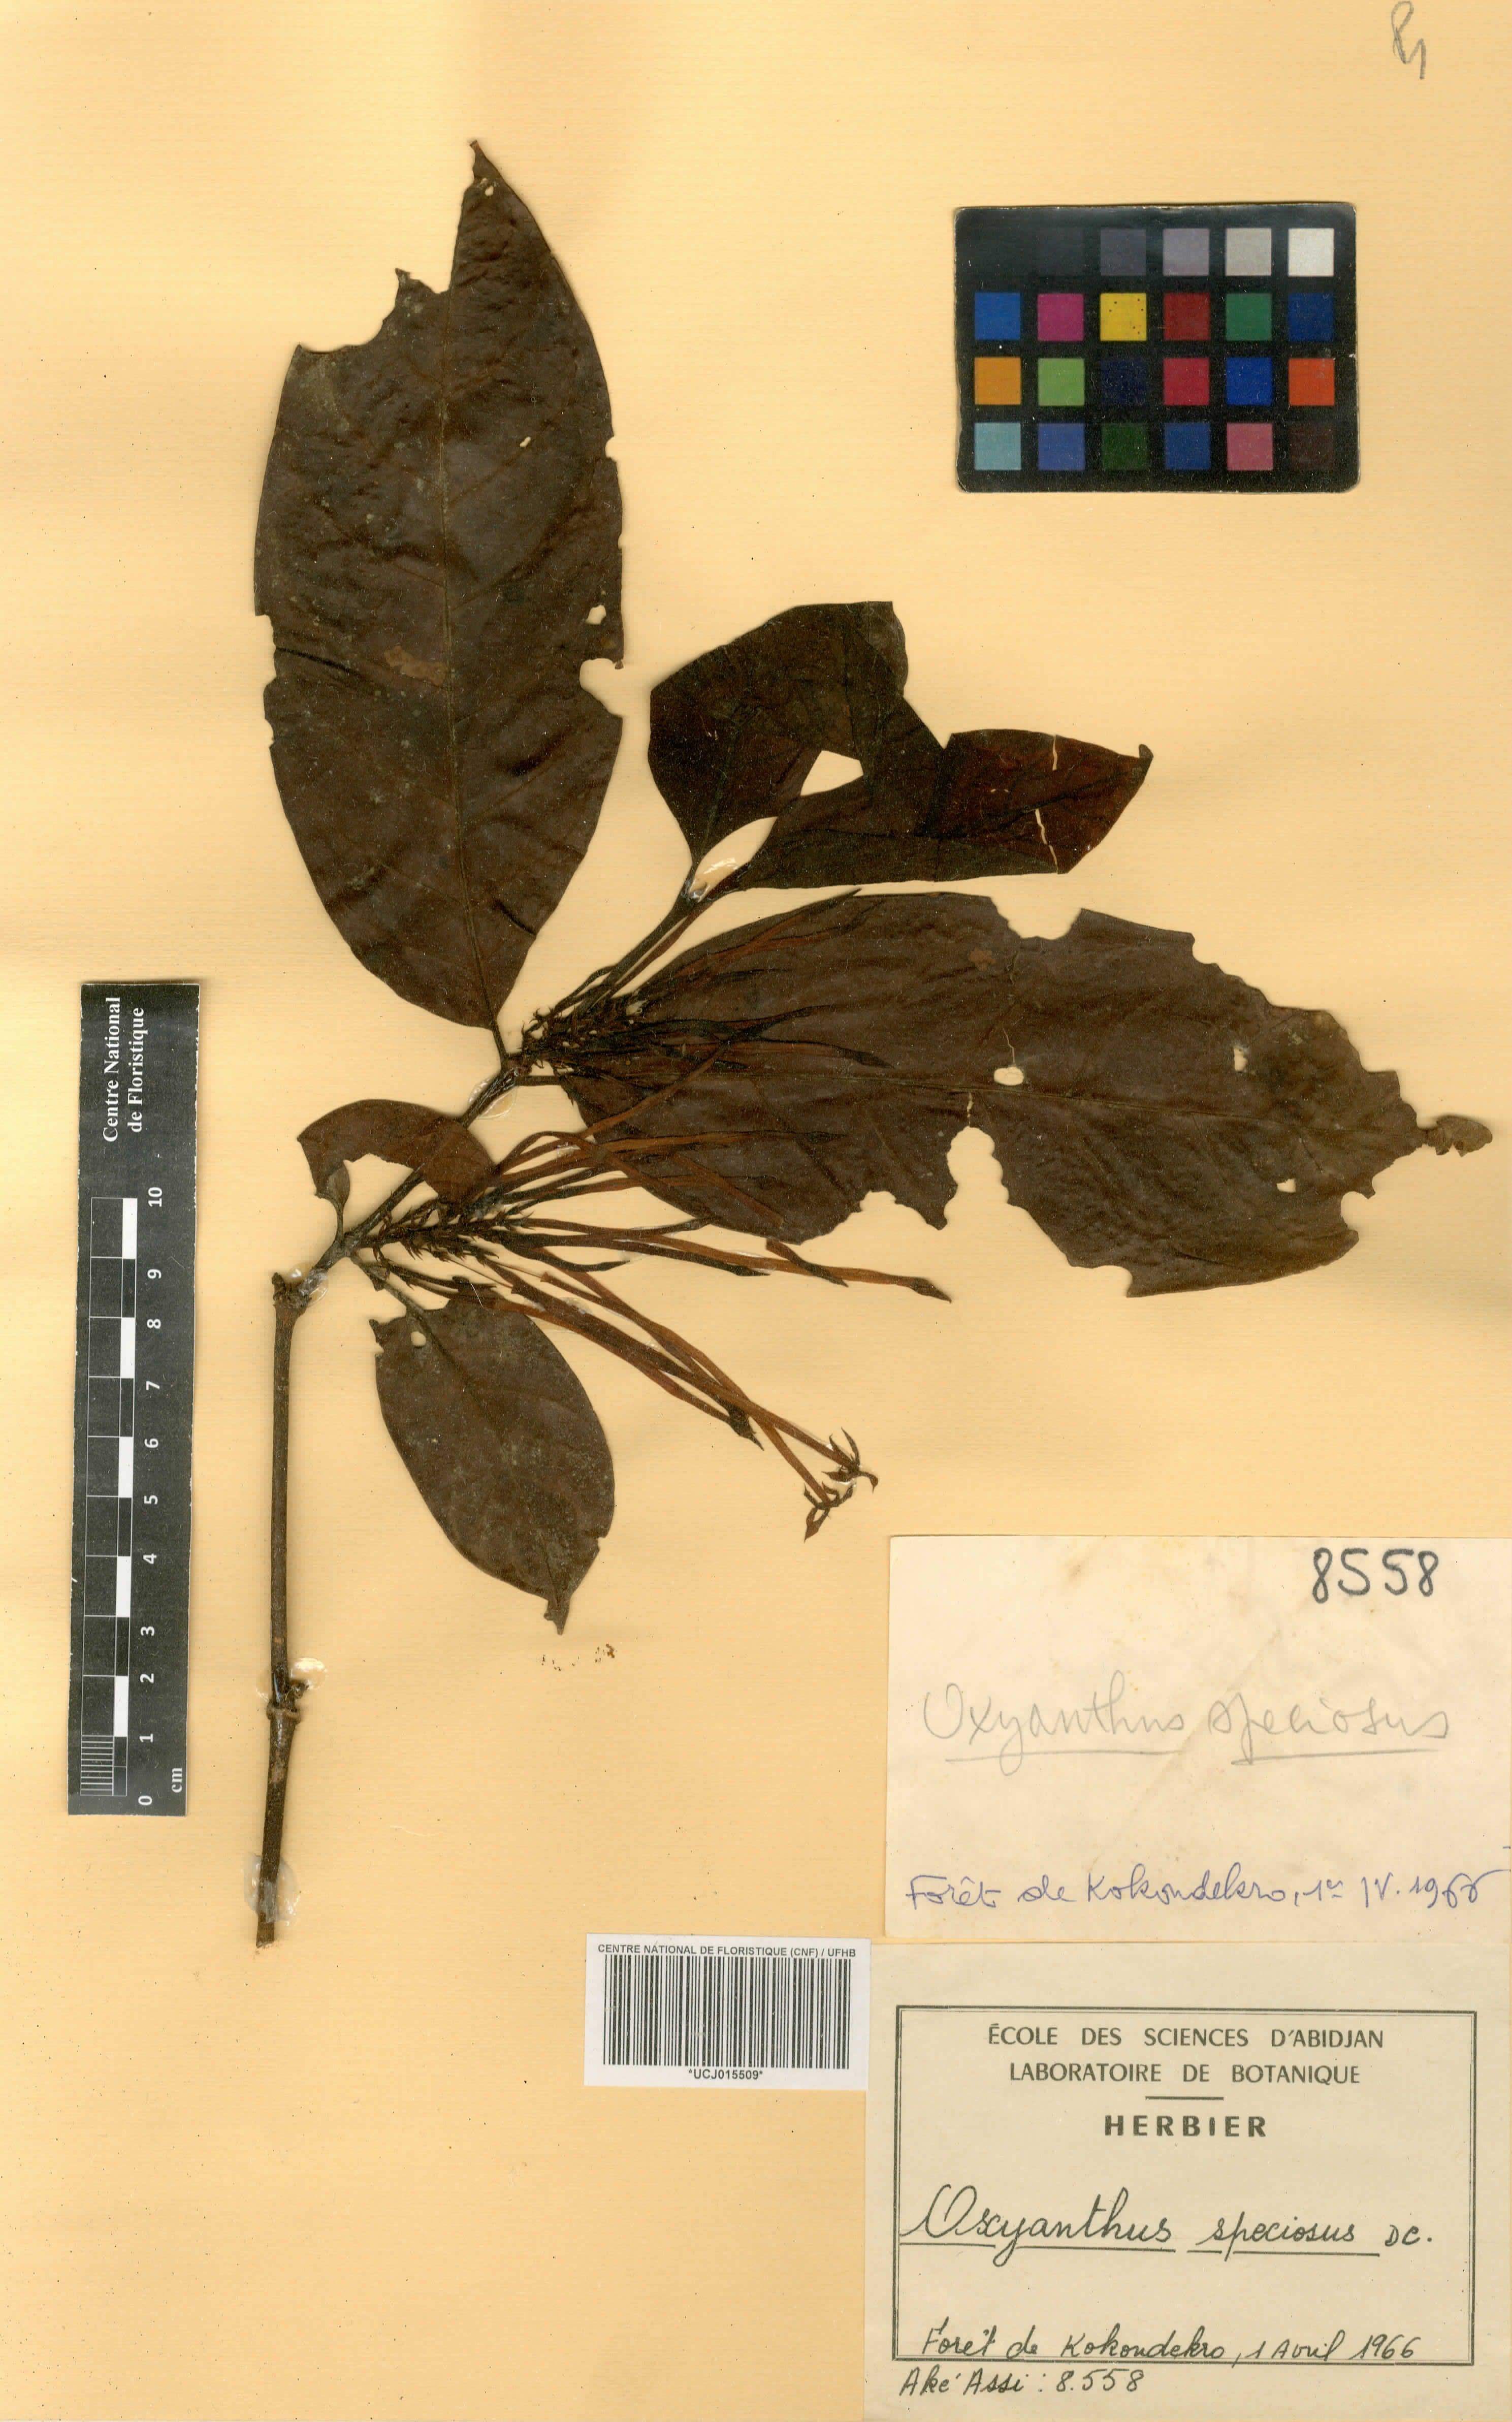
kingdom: Plantae
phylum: Tracheophyta
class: Magnoliopsida
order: Gentianales
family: Rubiaceae
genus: Oxyanthus
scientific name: Oxyanthus speciosus
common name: Whipstick loquat
